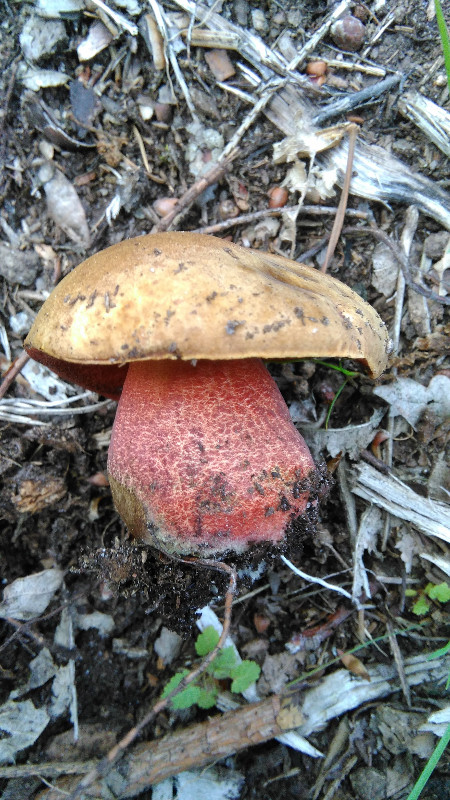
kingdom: Fungi
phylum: Basidiomycota
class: Agaricomycetes
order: Boletales
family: Boletaceae
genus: Neoboletus
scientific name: Neoboletus erythropus
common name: punktstokket indigorørhat
